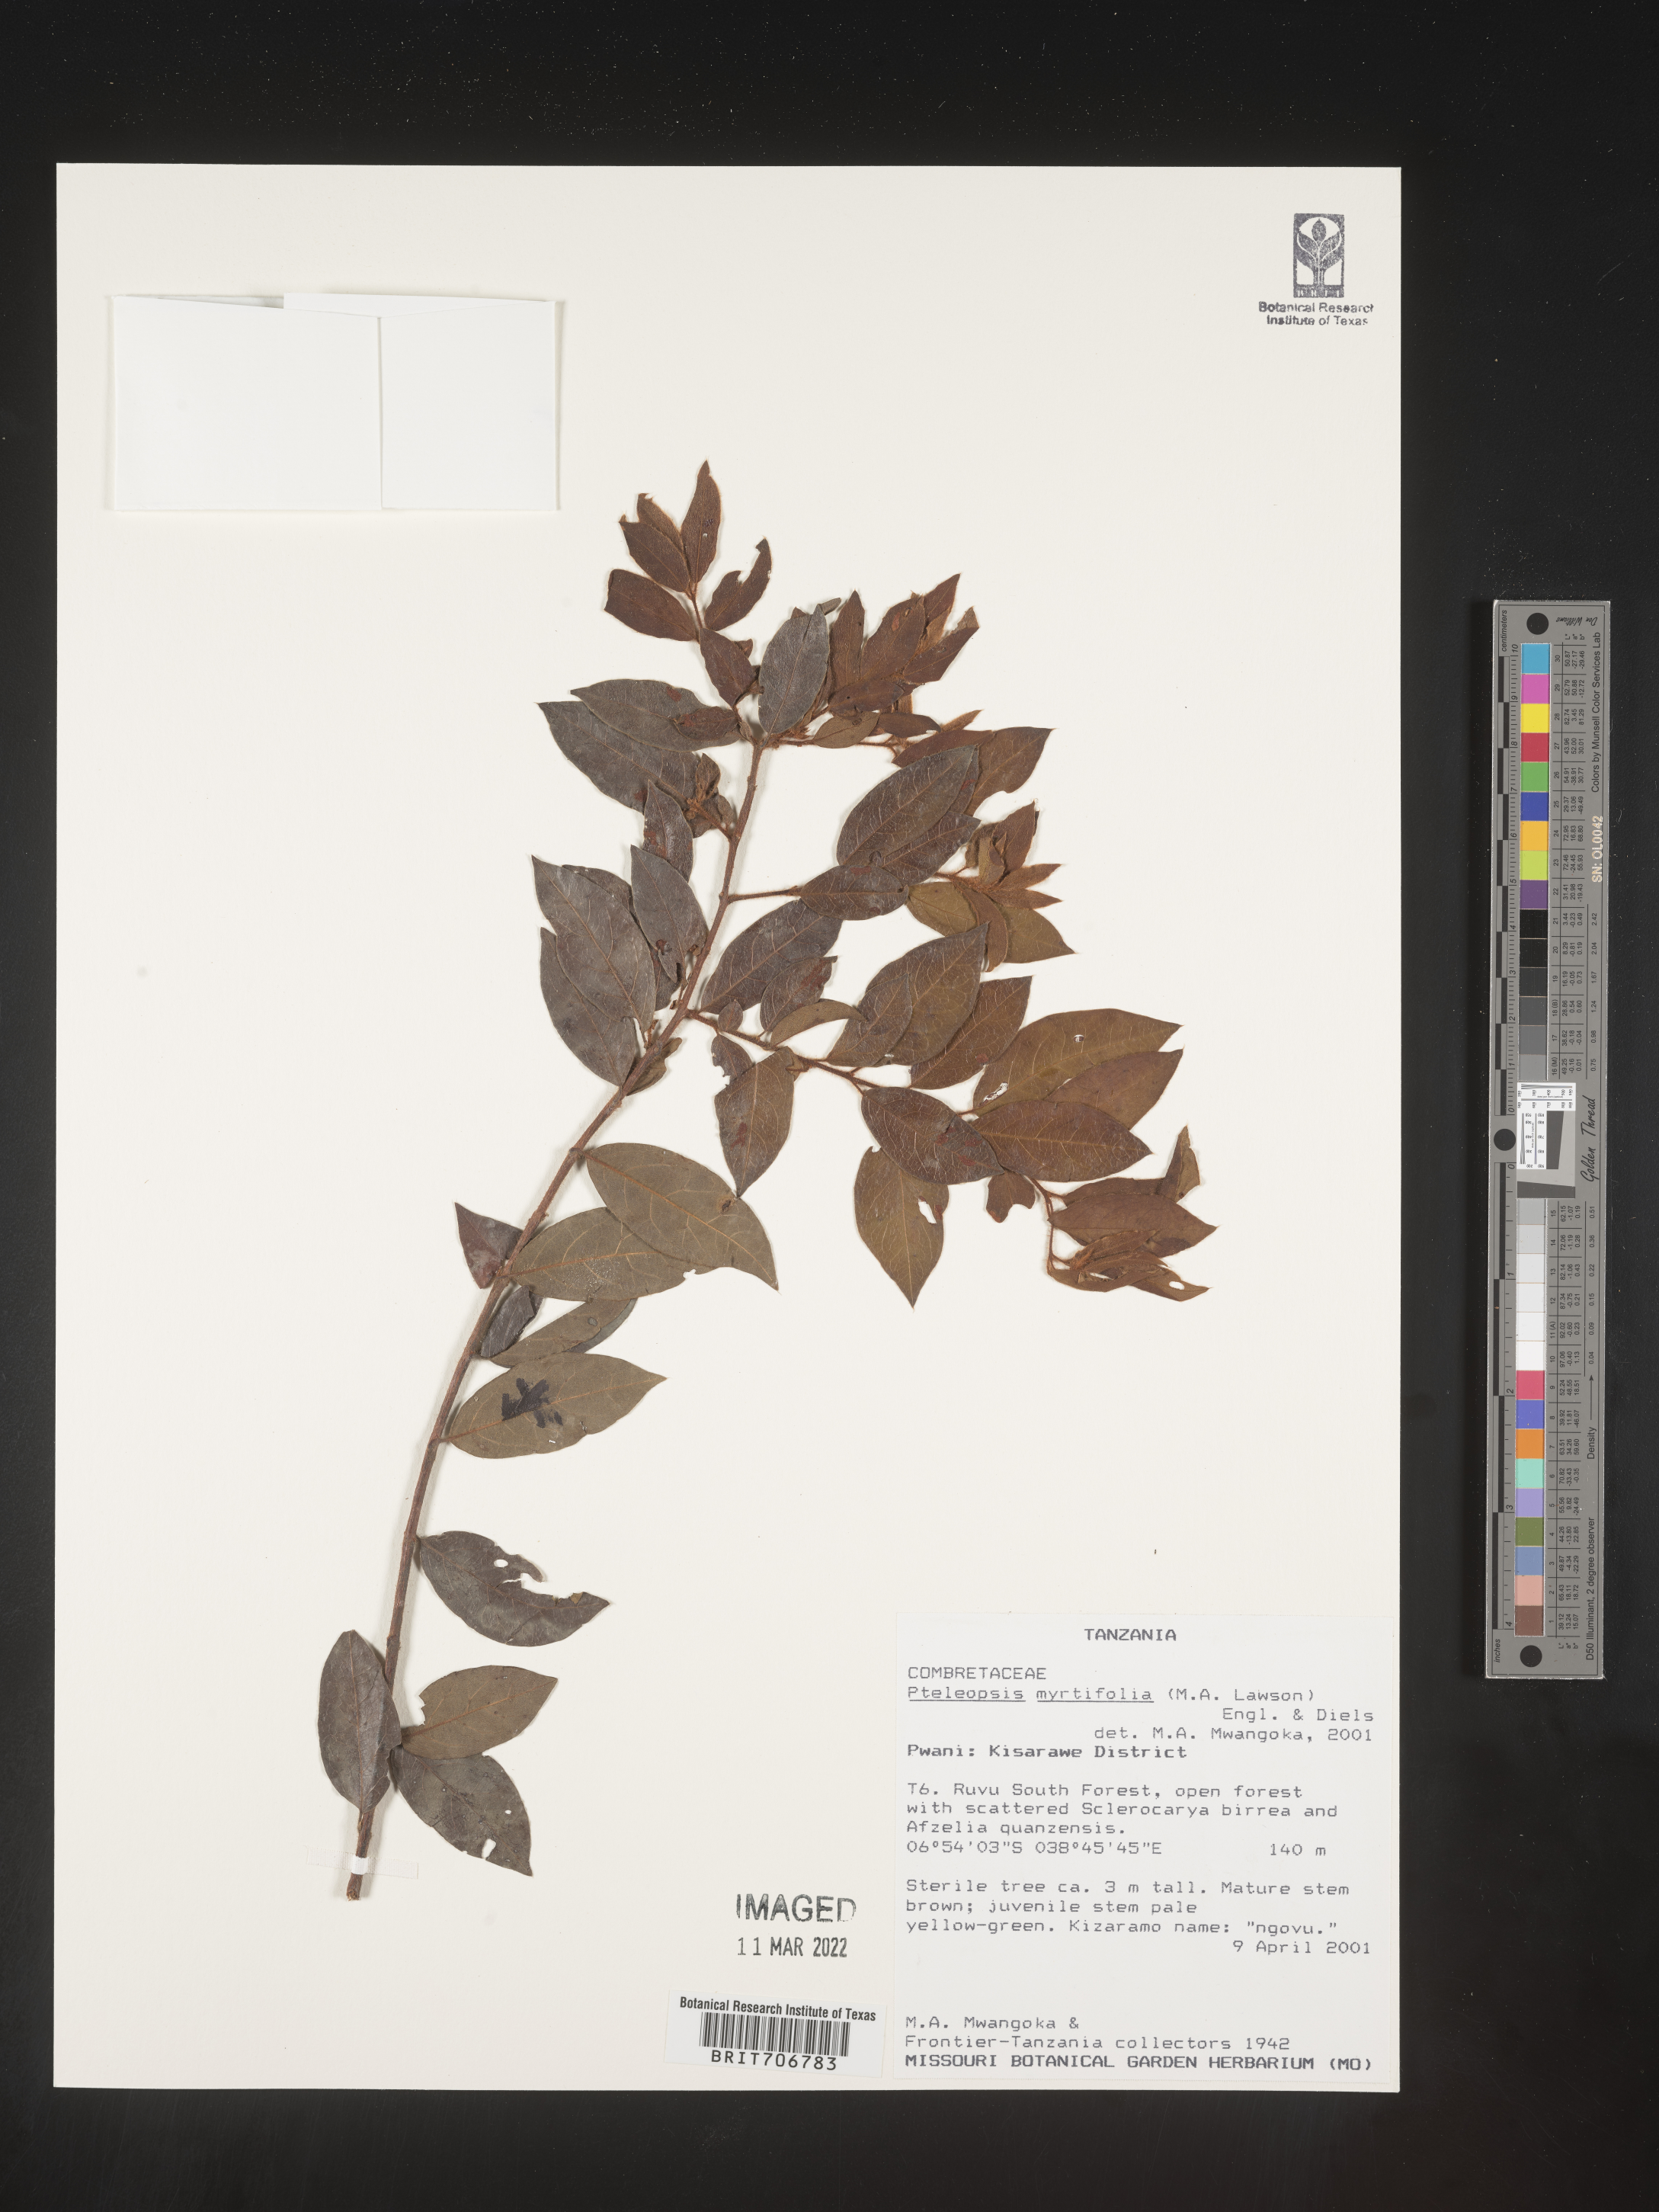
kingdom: Plantae
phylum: Tracheophyta
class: Magnoliopsida
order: Myrtales
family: Combretaceae
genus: Terminalia
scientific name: Terminalia
